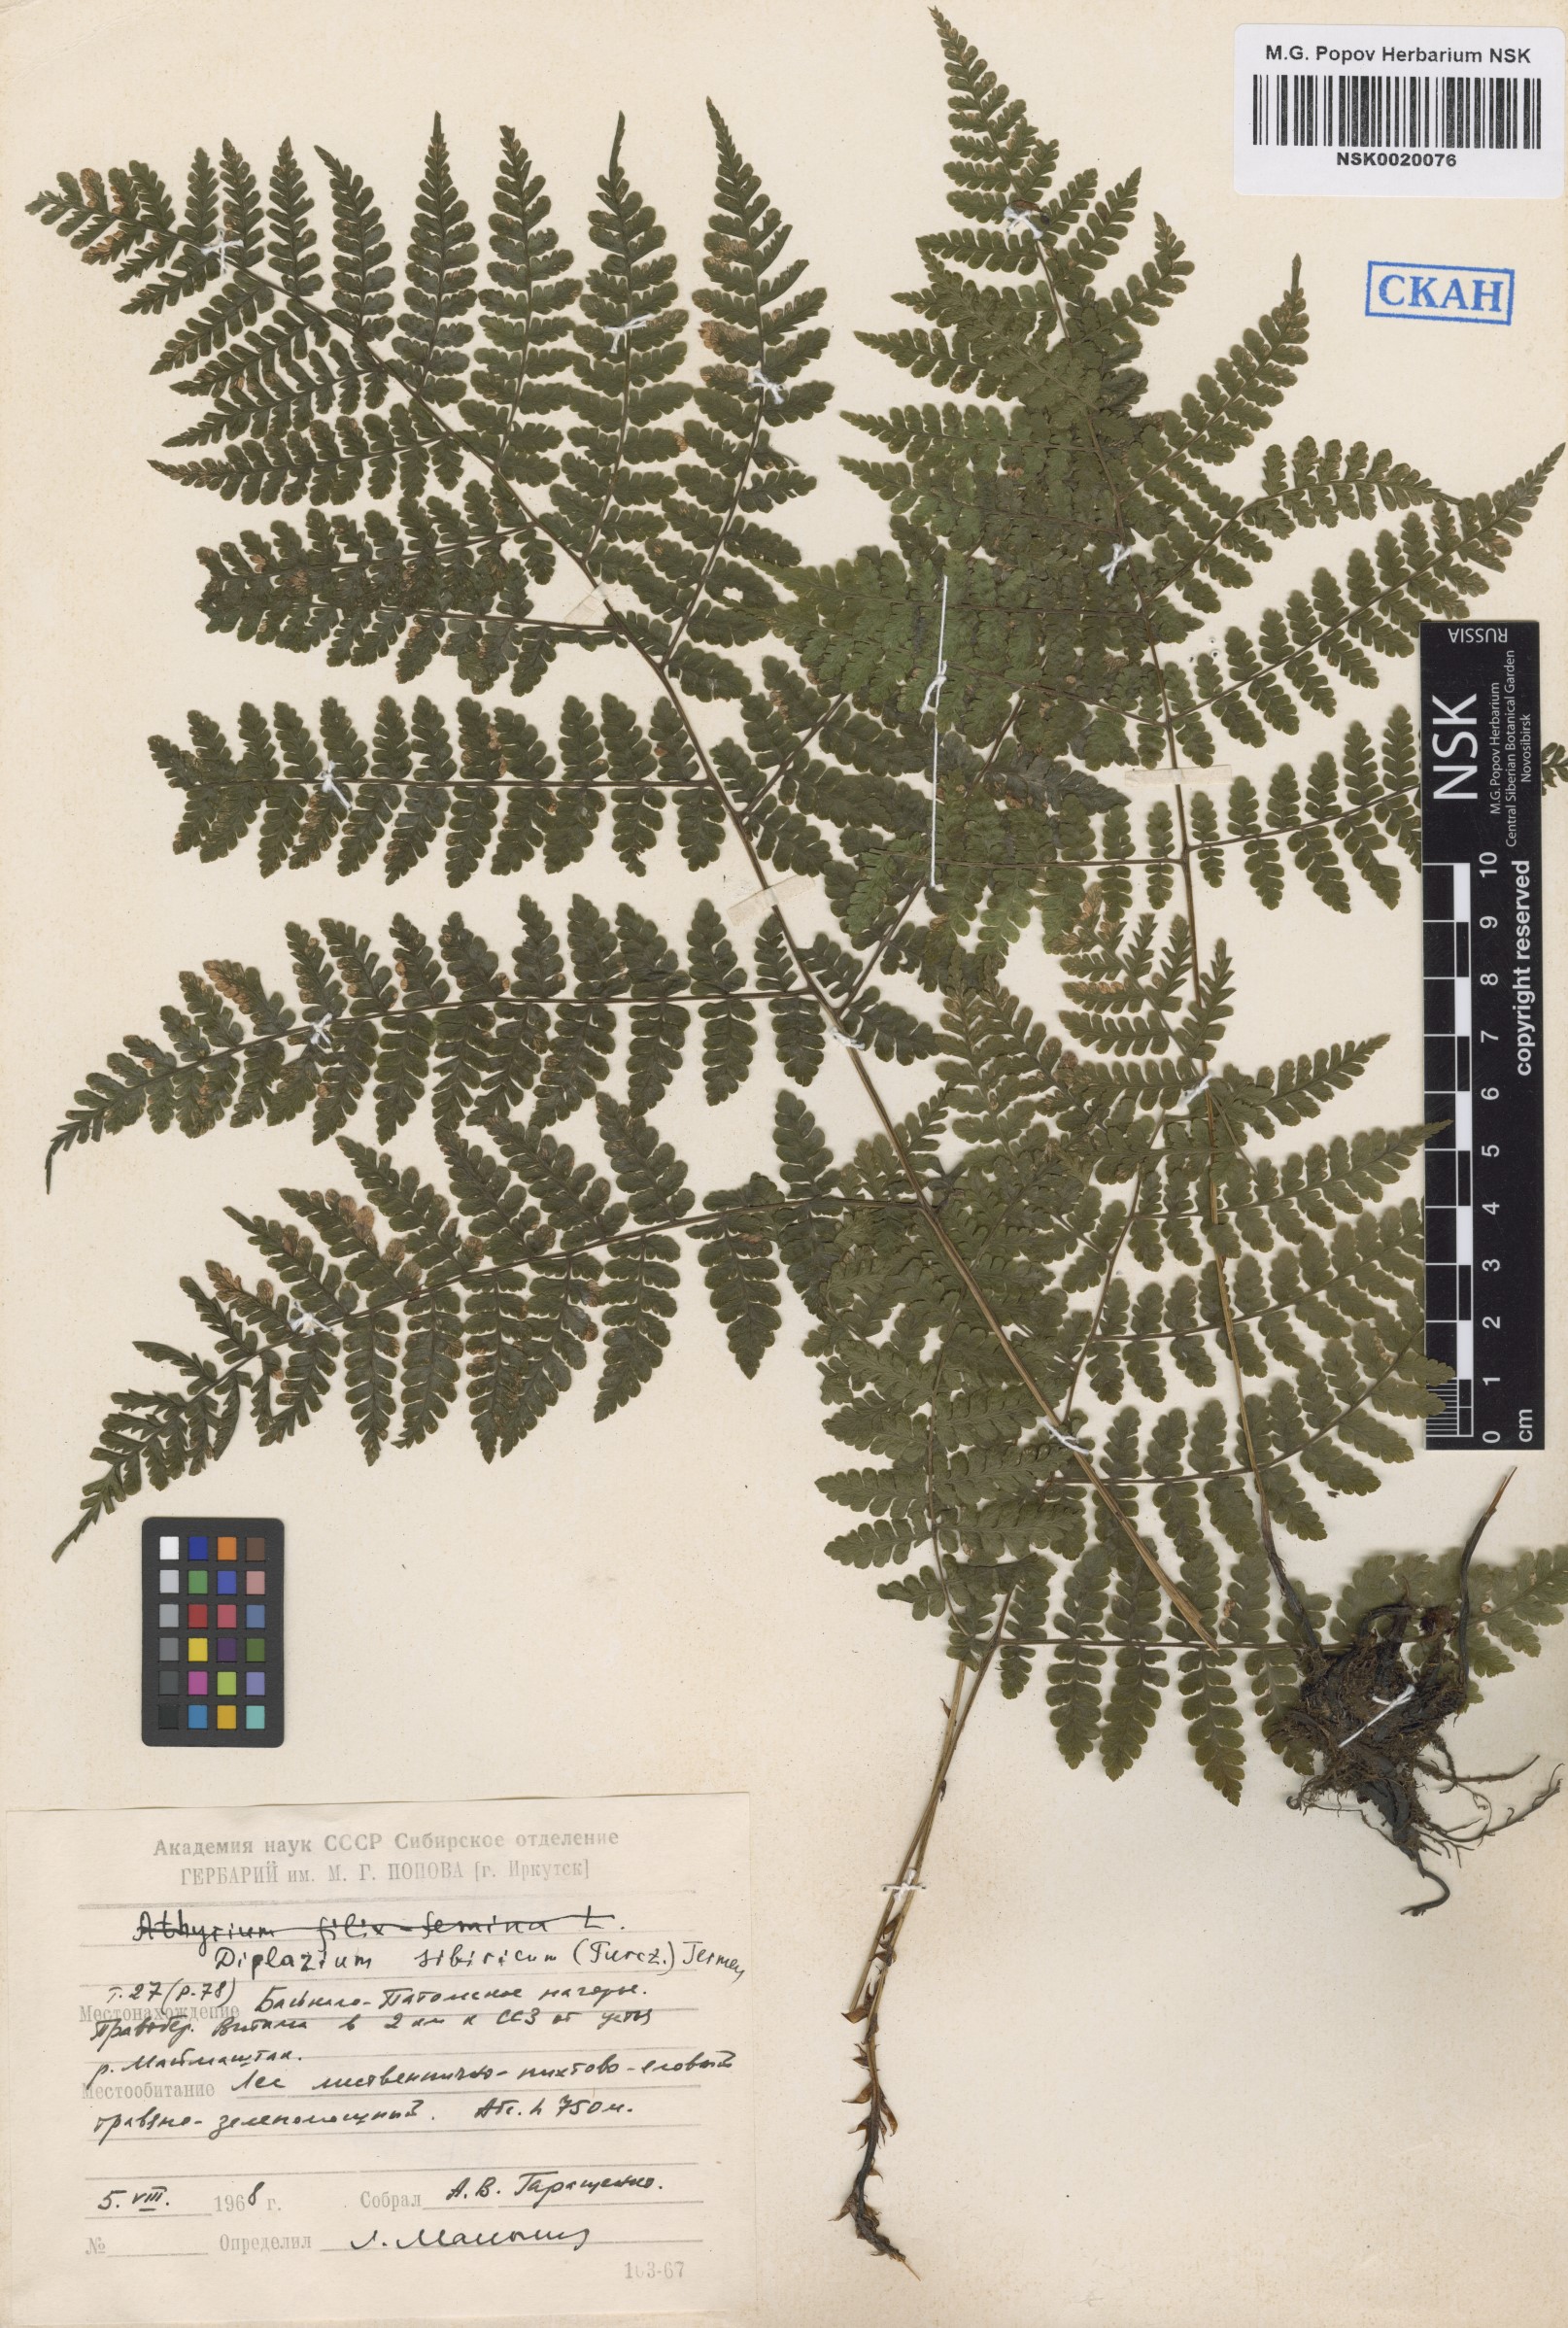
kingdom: Plantae
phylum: Tracheophyta
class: Polypodiopsida
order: Polypodiales
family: Athyriaceae
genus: Diplazium
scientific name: Diplazium sibiricum
